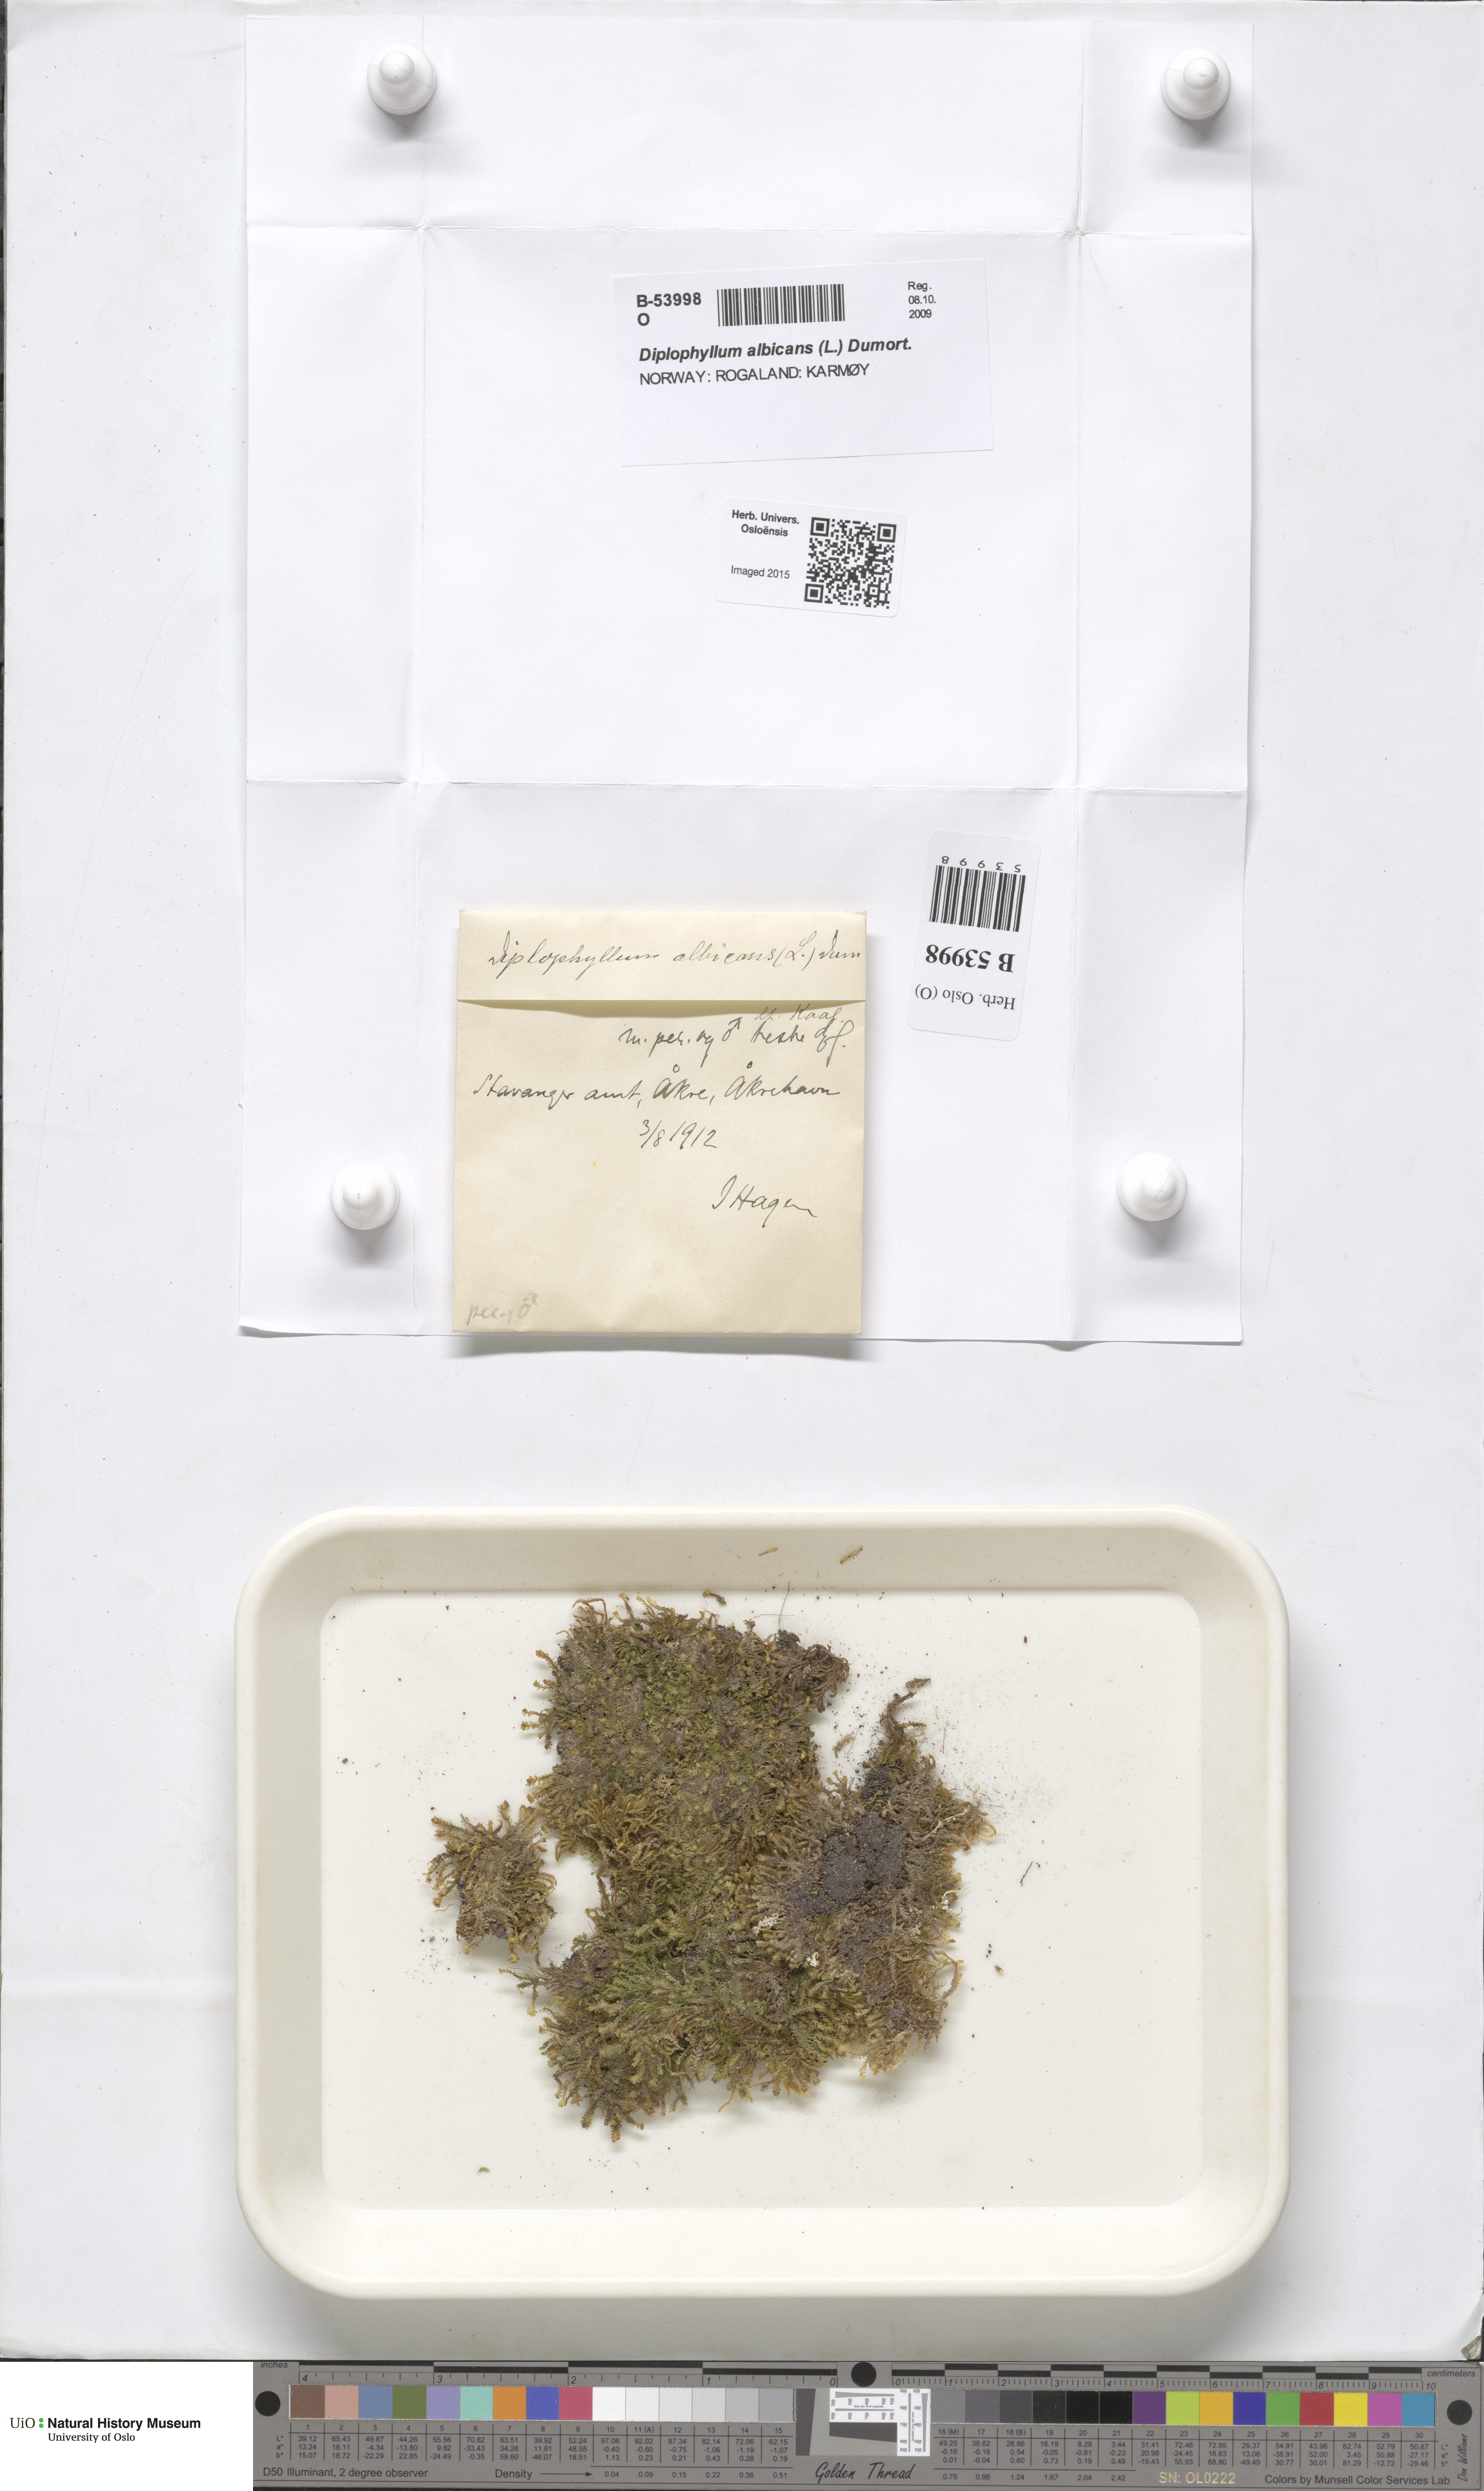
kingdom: Plantae
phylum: Marchantiophyta
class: Jungermanniopsida
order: Jungermanniales
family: Scapaniaceae
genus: Diplophyllum
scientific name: Diplophyllum albicans
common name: White earwort
